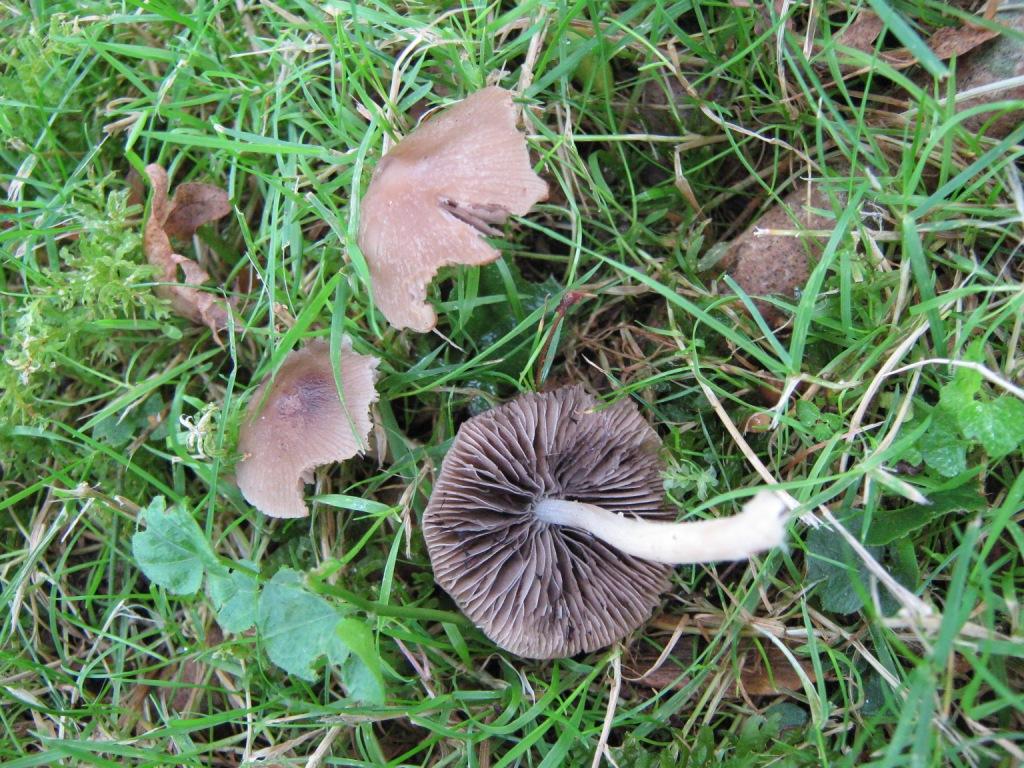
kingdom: Fungi
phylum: Basidiomycota
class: Agaricomycetes
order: Agaricales
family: Psathyrellaceae
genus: Psathyrella
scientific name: Psathyrella spadiceogrisea
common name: gråbrun mørkhat
